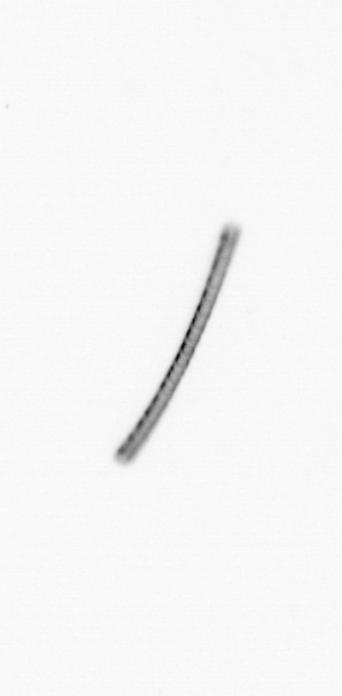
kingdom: Chromista
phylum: Ochrophyta
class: Bacillariophyceae
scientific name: Bacillariophyceae
